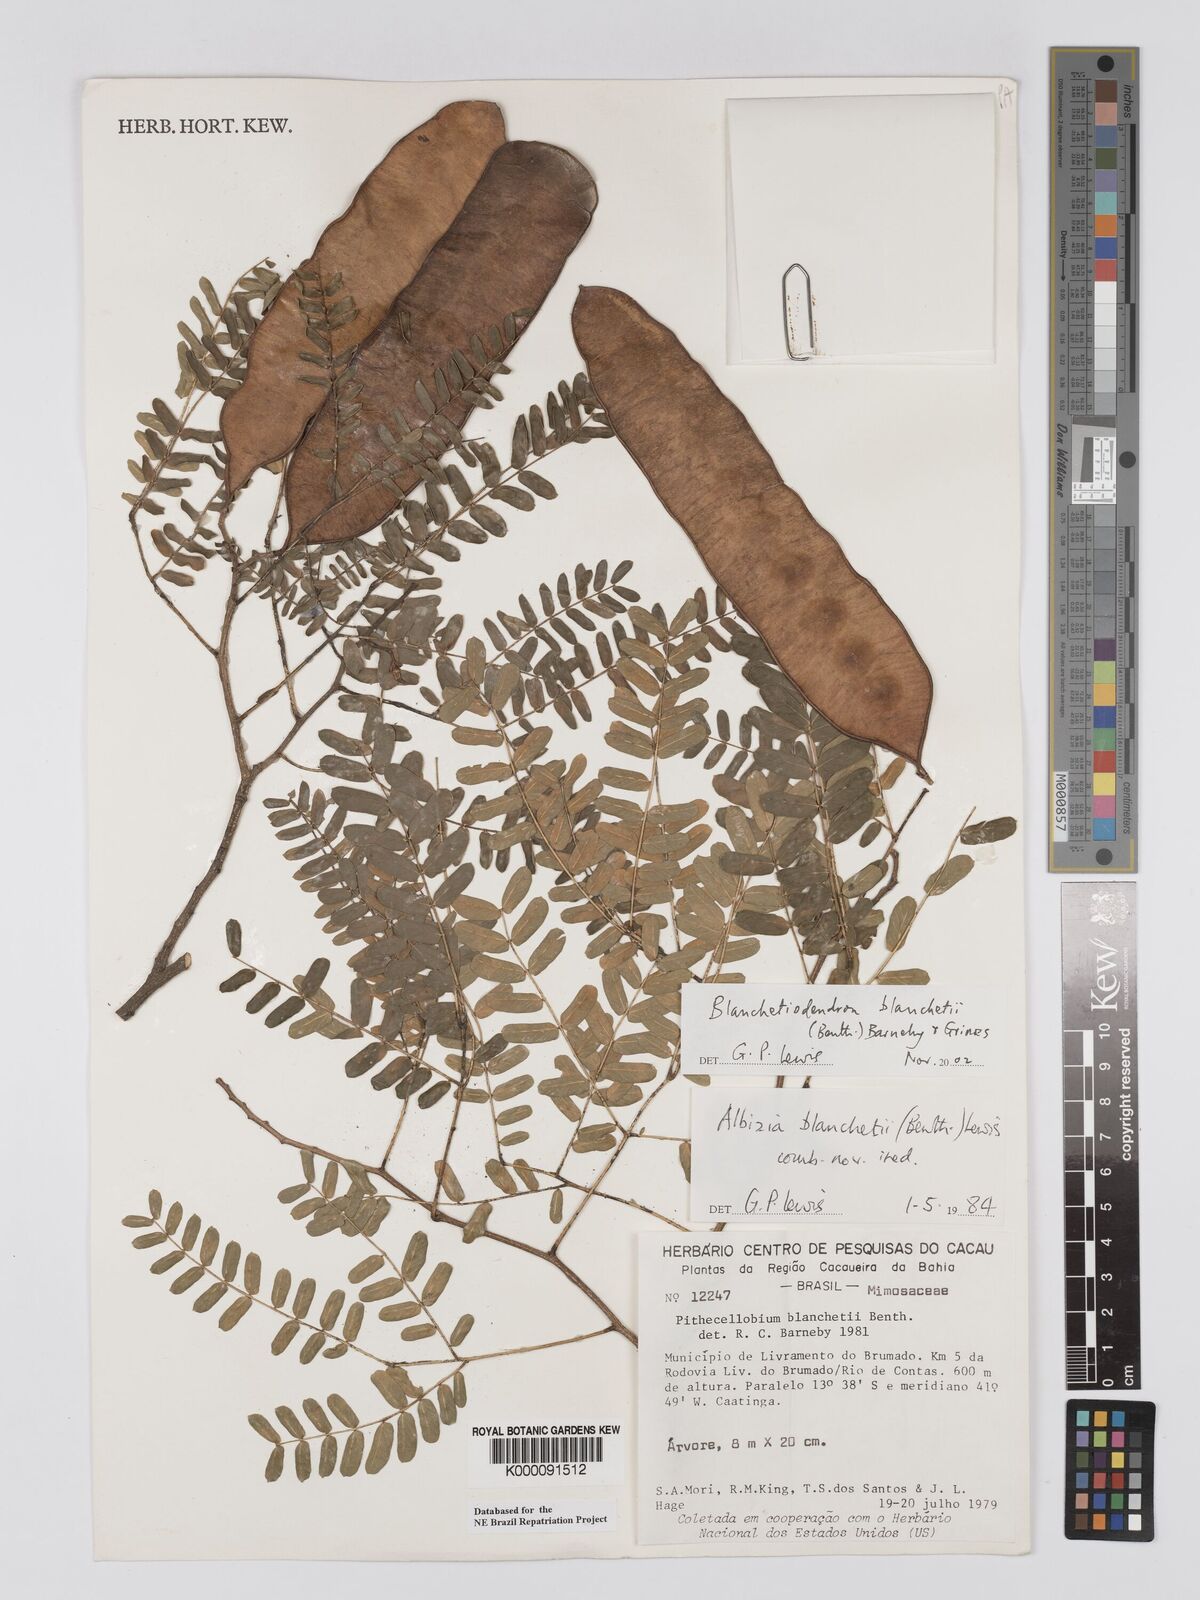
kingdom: Plantae
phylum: Tracheophyta
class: Magnoliopsida
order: Fabales
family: Fabaceae
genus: Blanchetiodendron
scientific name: Blanchetiodendron blanchetii
